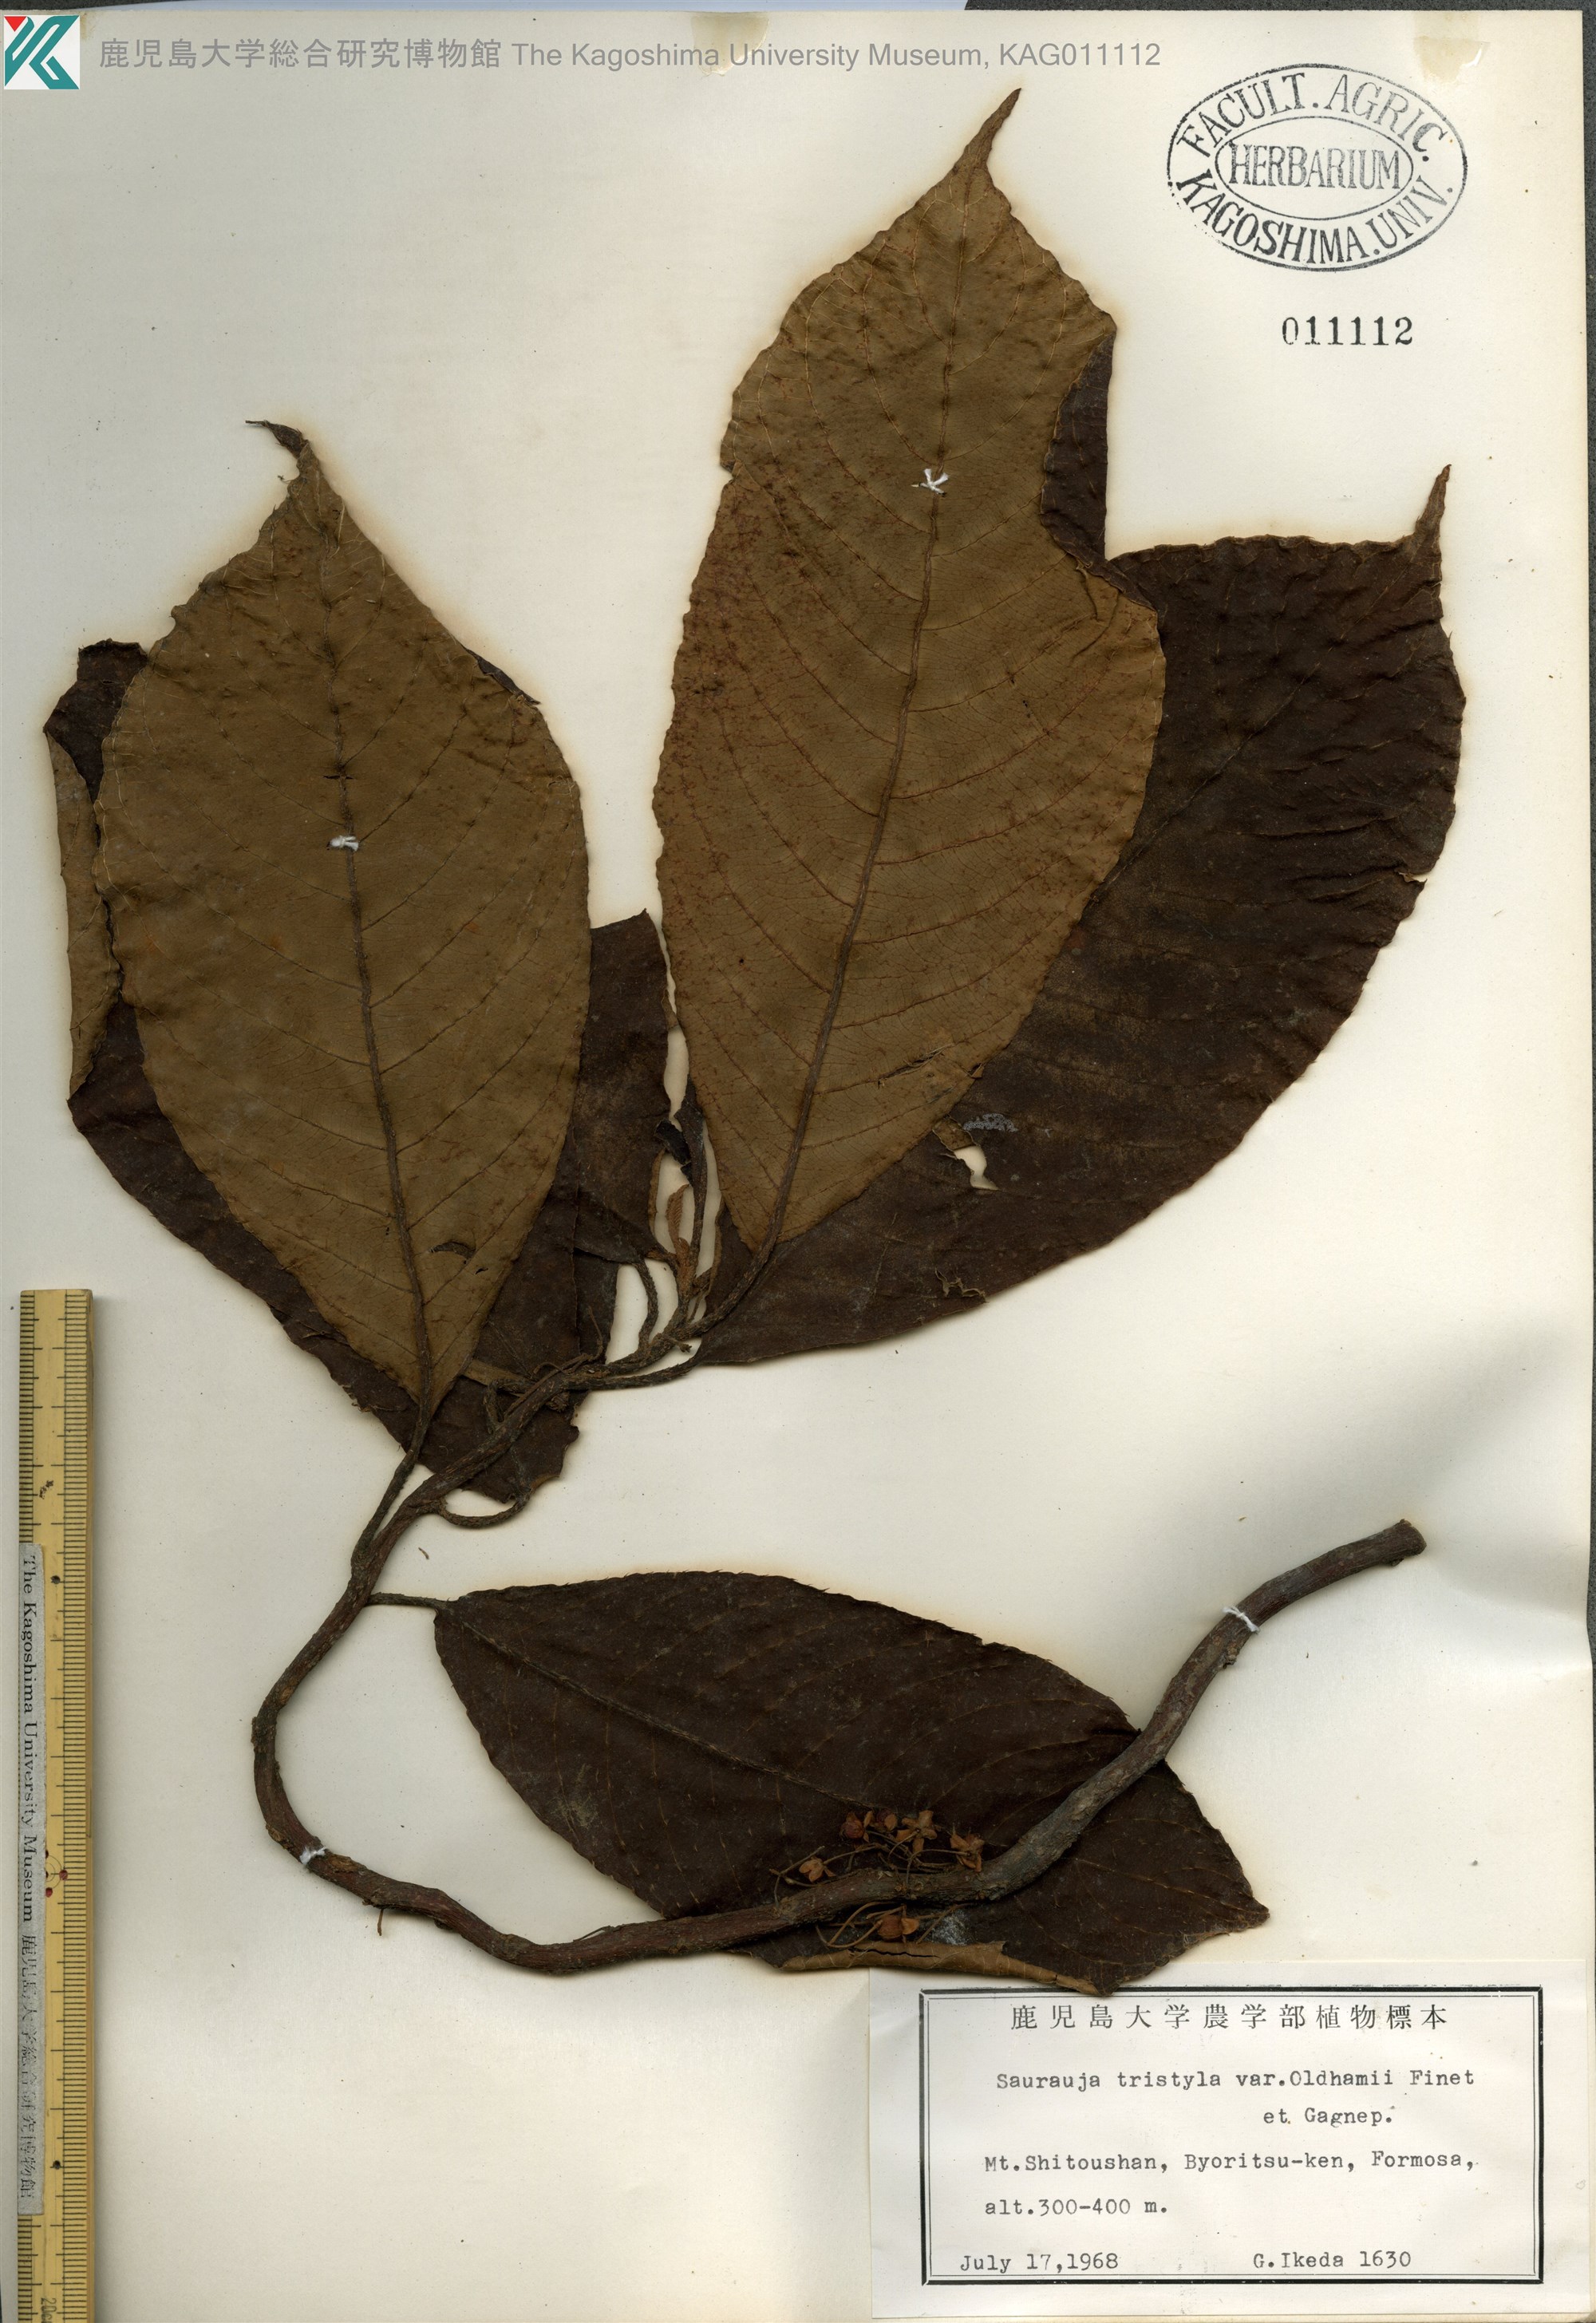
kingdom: Plantae
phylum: Tracheophyta
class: Magnoliopsida
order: Ericales
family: Actinidiaceae
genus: Saurauia
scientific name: Saurauia tristyla
